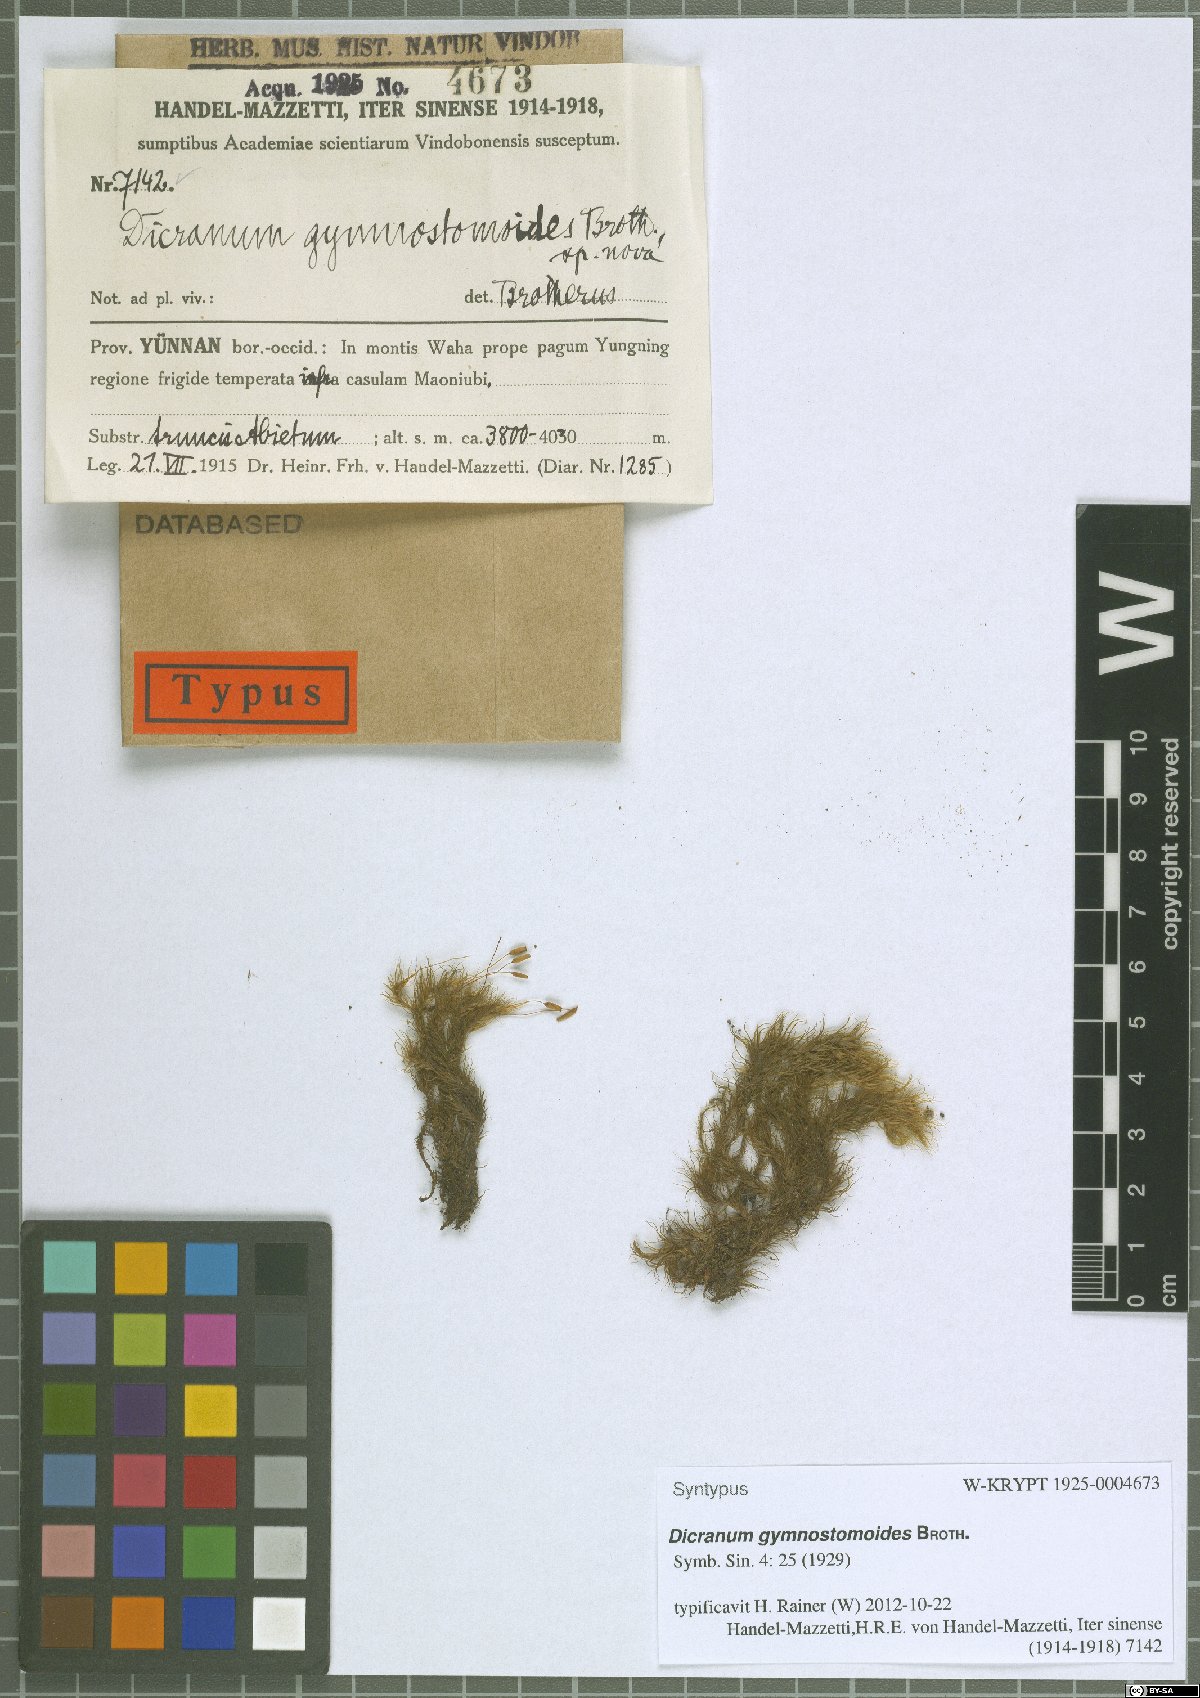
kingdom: Plantae
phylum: Bryophyta
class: Bryopsida
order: Dicranales
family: Dicranaceae
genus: Pseudochorisodontium
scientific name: Pseudochorisodontium gymnostomum
